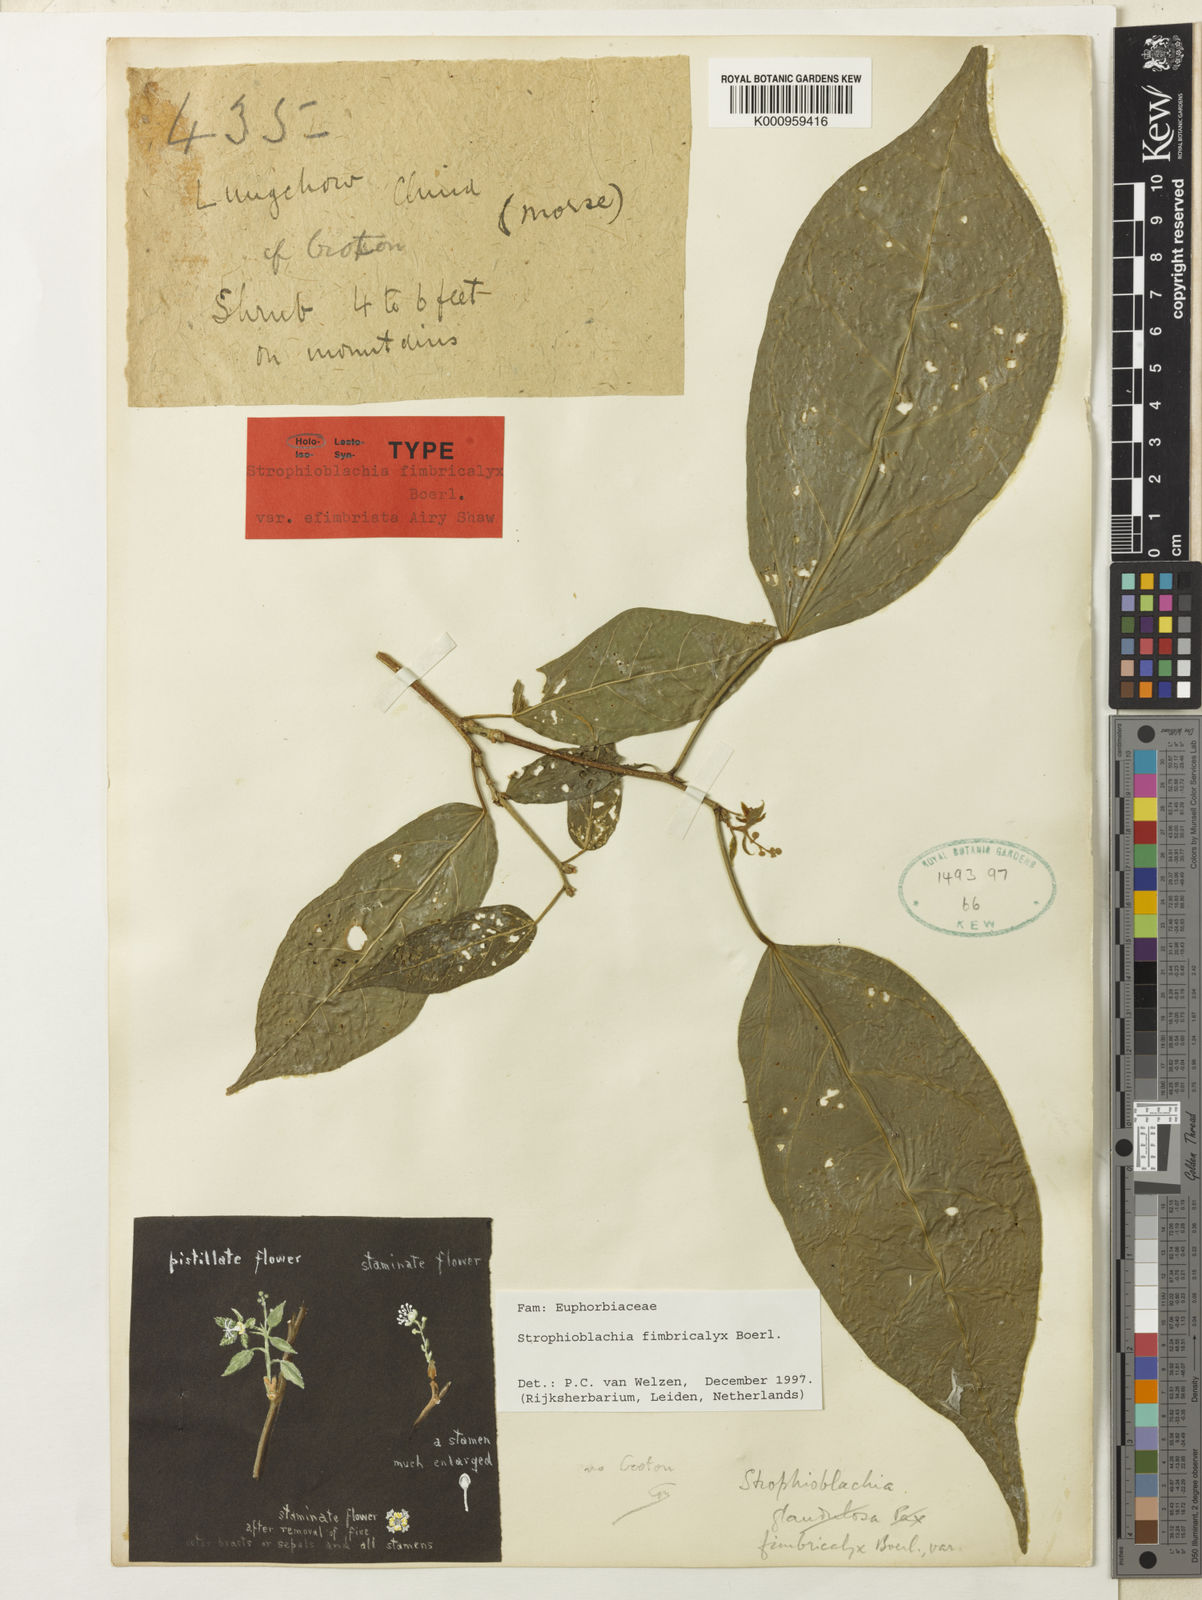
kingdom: Plantae
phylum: Tracheophyta
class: Magnoliopsida
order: Malpighiales
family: Euphorbiaceae
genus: Strophioblachia
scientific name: Strophioblachia fimbricalyx
